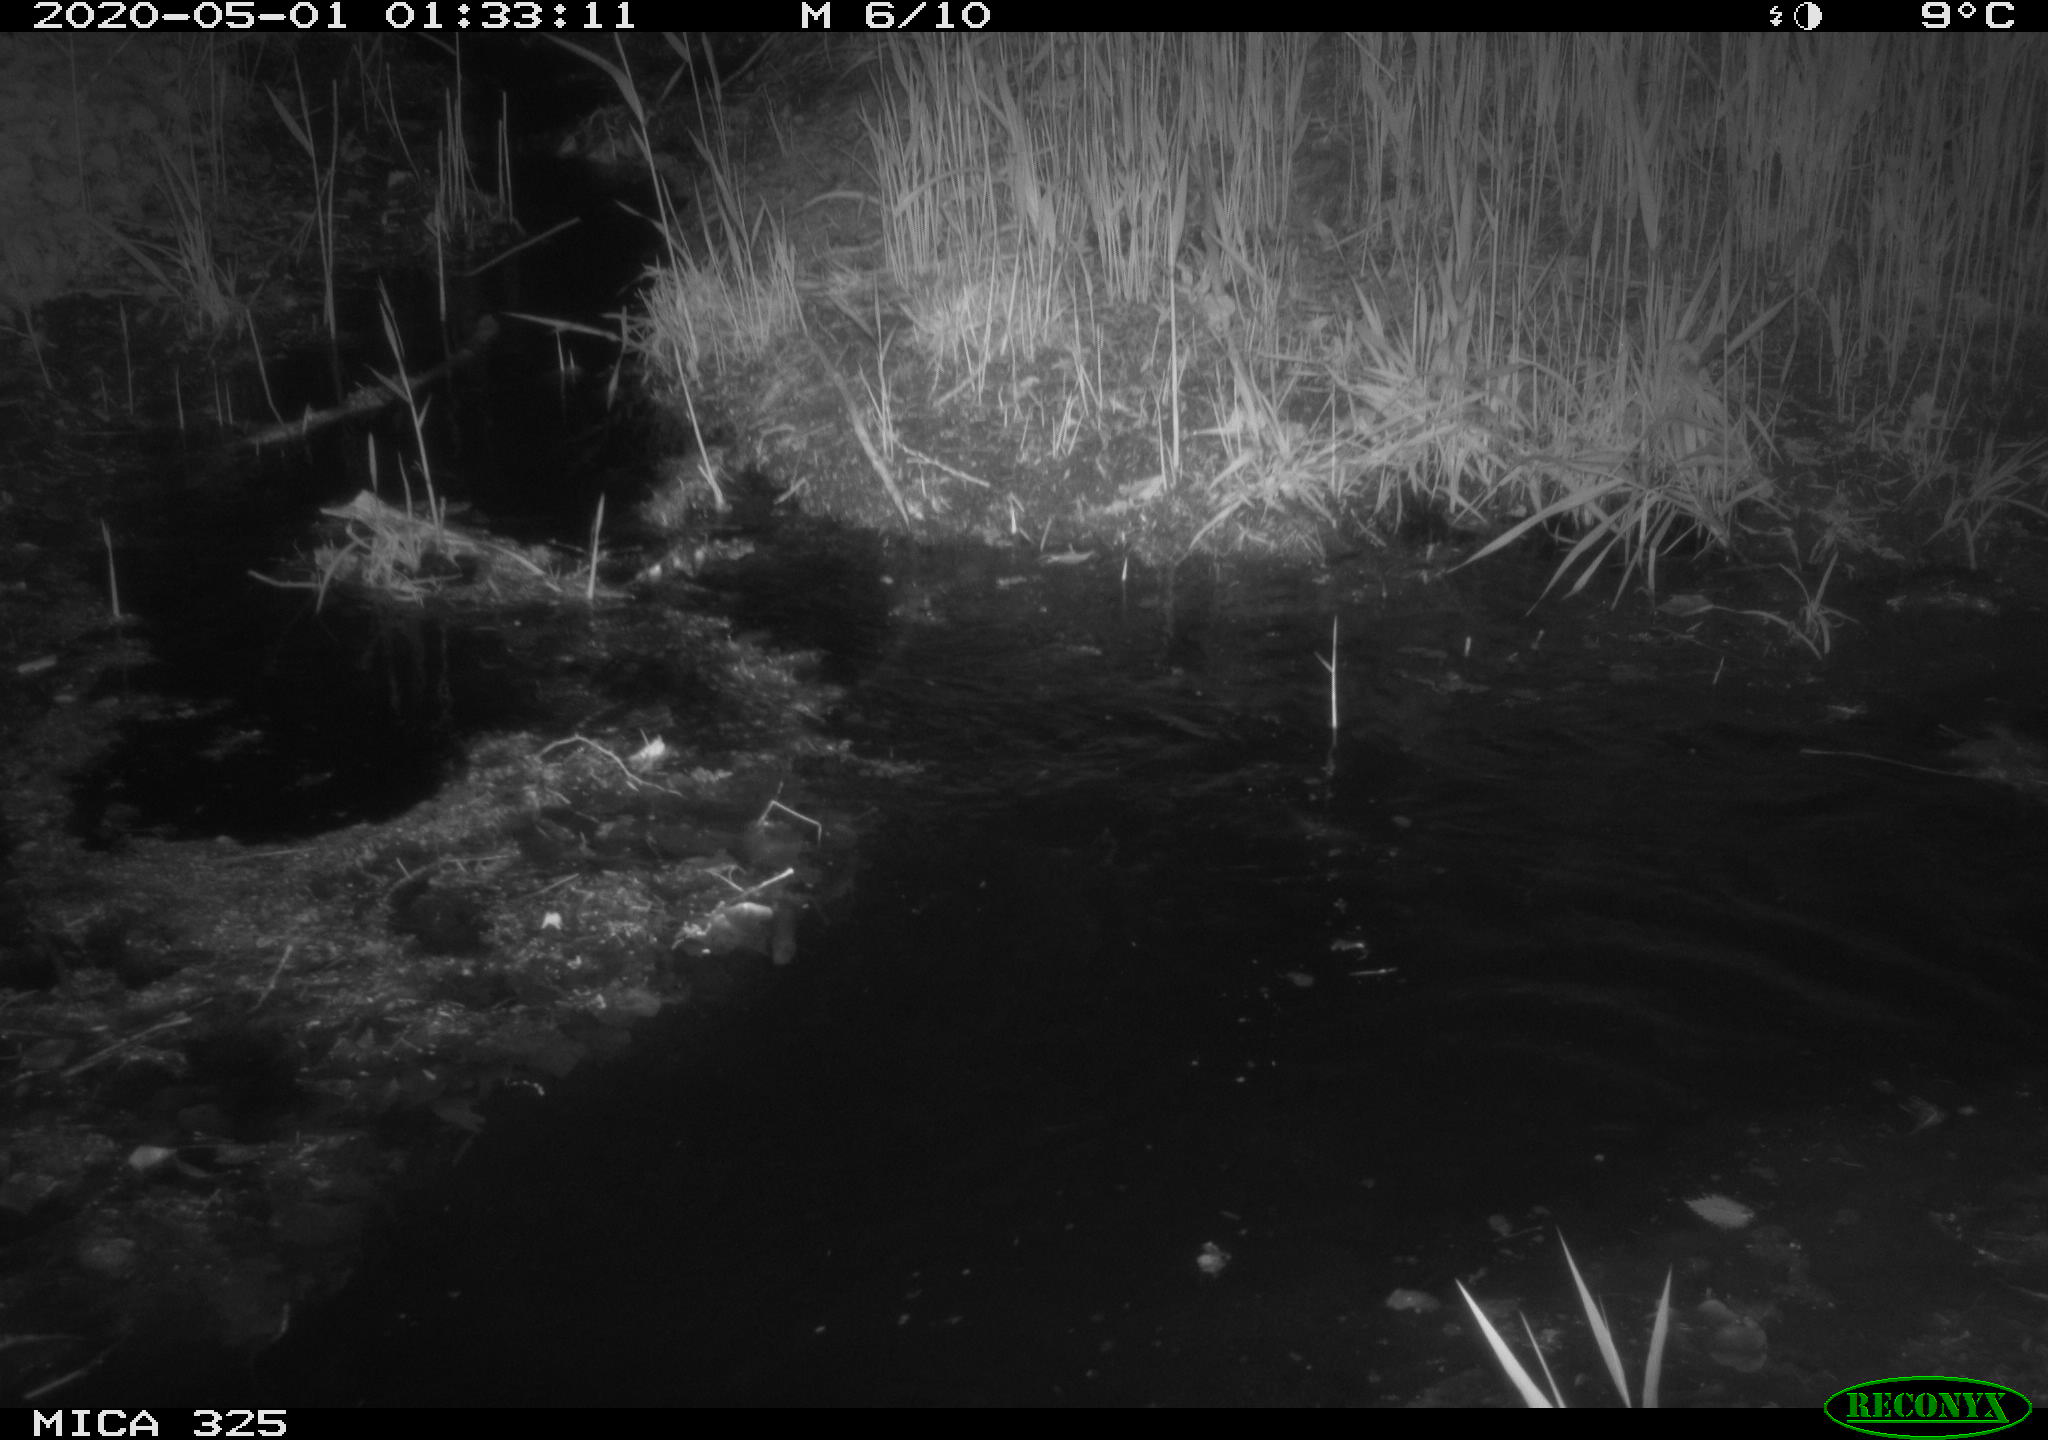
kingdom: Animalia
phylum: Chordata
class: Mammalia
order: Rodentia
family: Myocastoridae
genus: Myocastor
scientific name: Myocastor coypus
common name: Coypu
